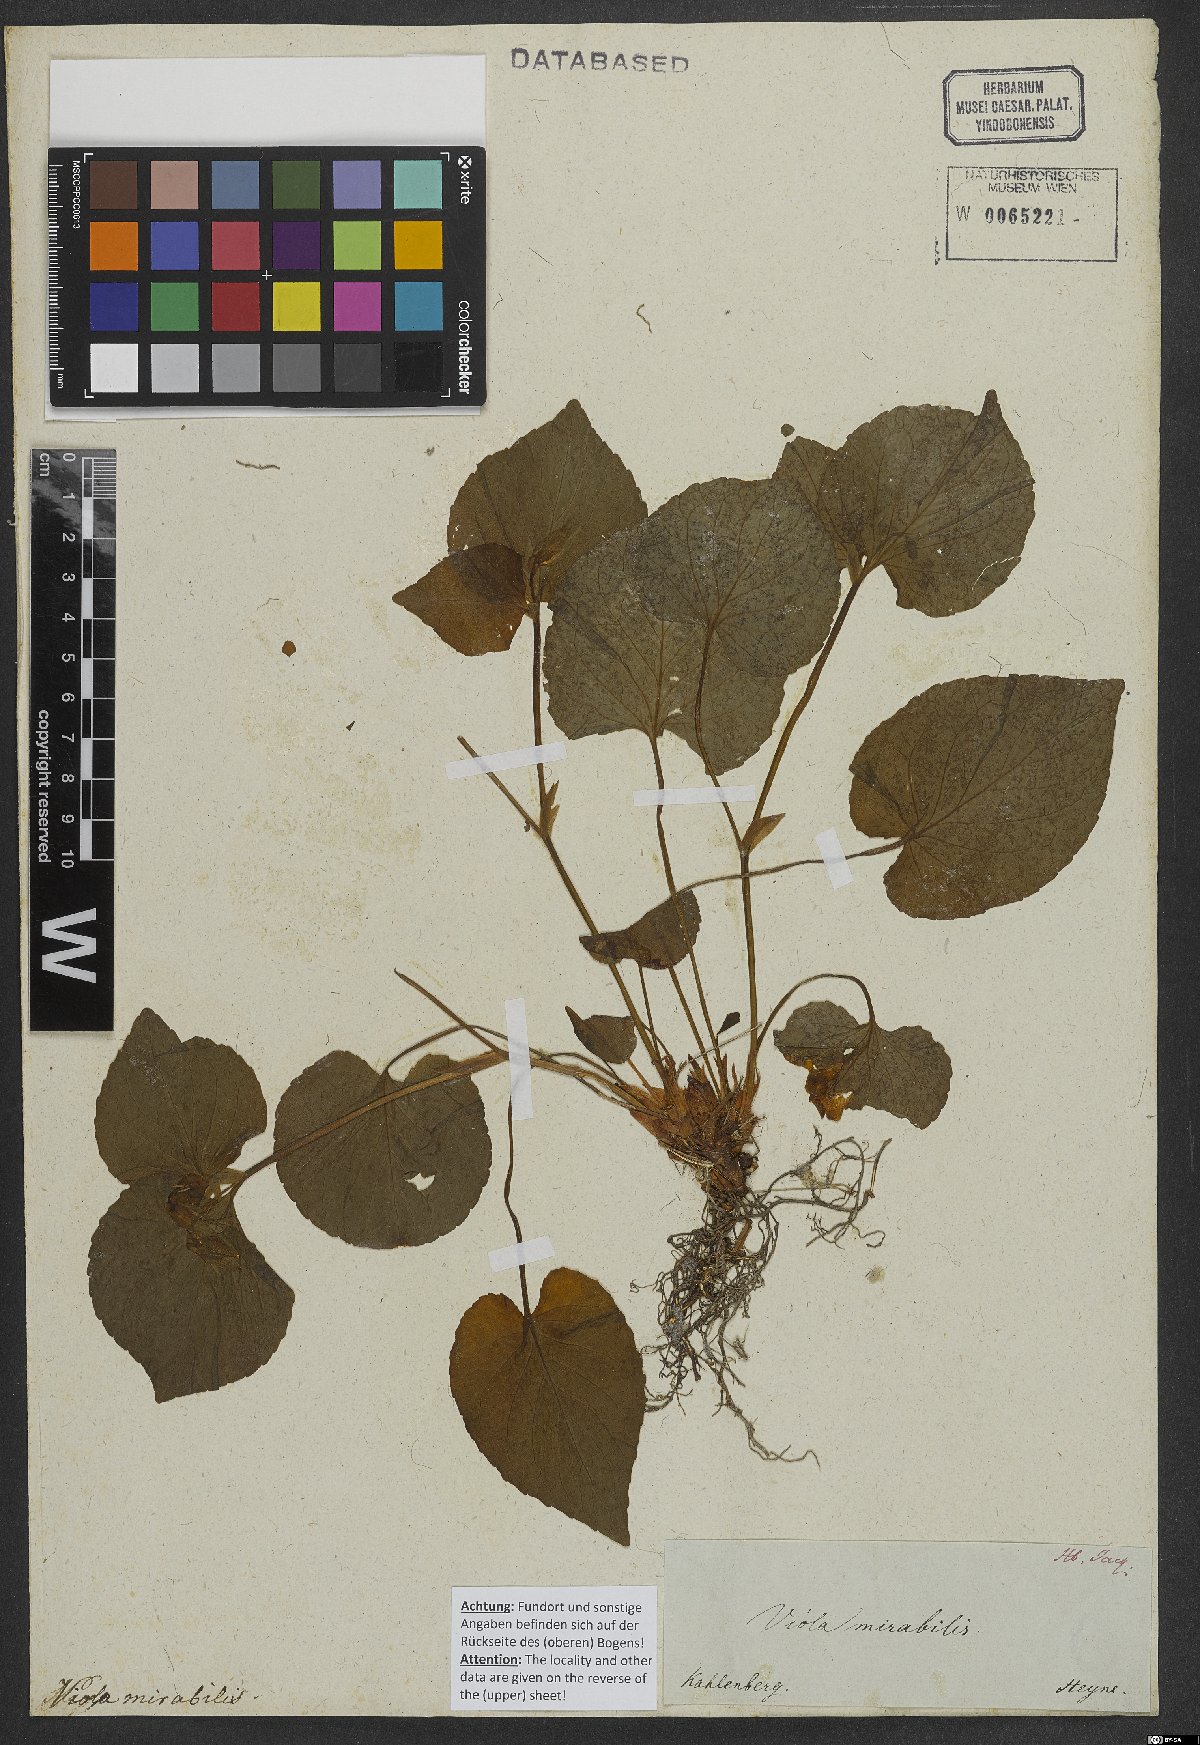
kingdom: Plantae
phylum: Tracheophyta
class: Magnoliopsida
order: Malpighiales
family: Violaceae
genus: Viola
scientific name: Viola mirabilis
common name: Wonder violet
